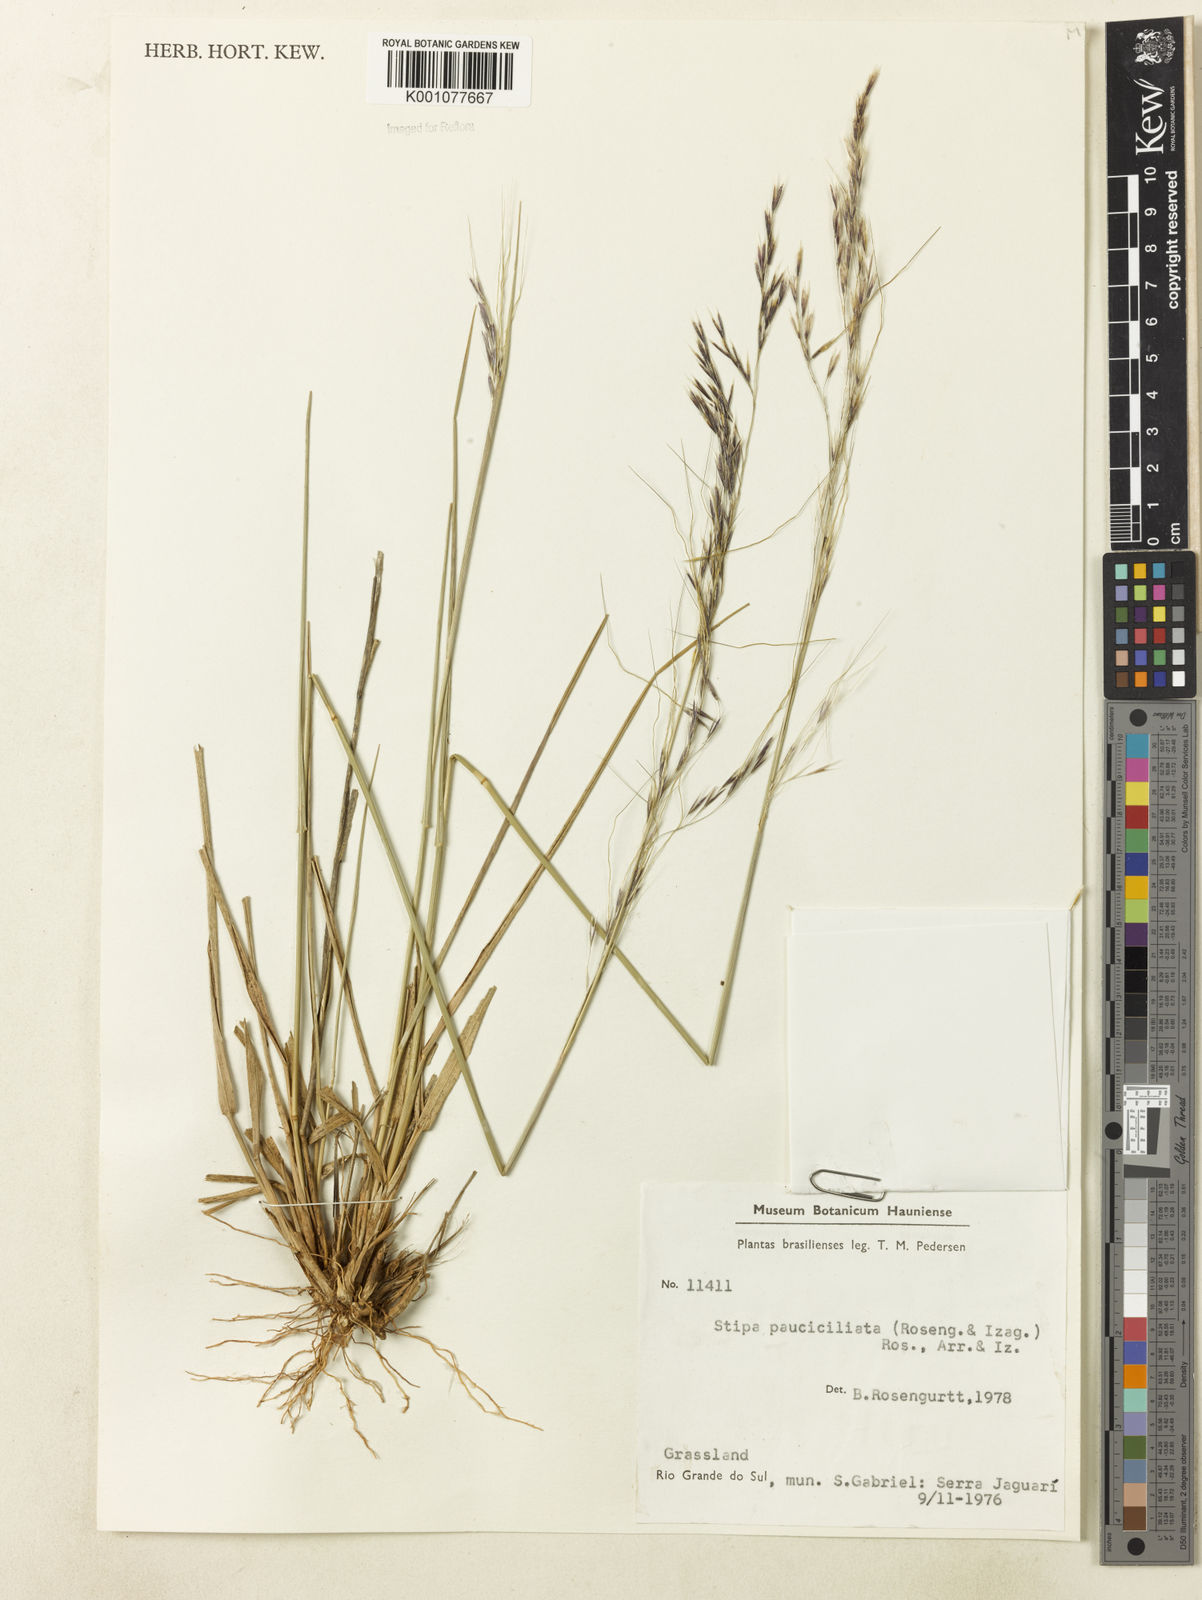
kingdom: Plantae
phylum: Tracheophyta
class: Liliopsida
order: Poales
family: Poaceae
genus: Nassella
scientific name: Nassella pauciciliata
